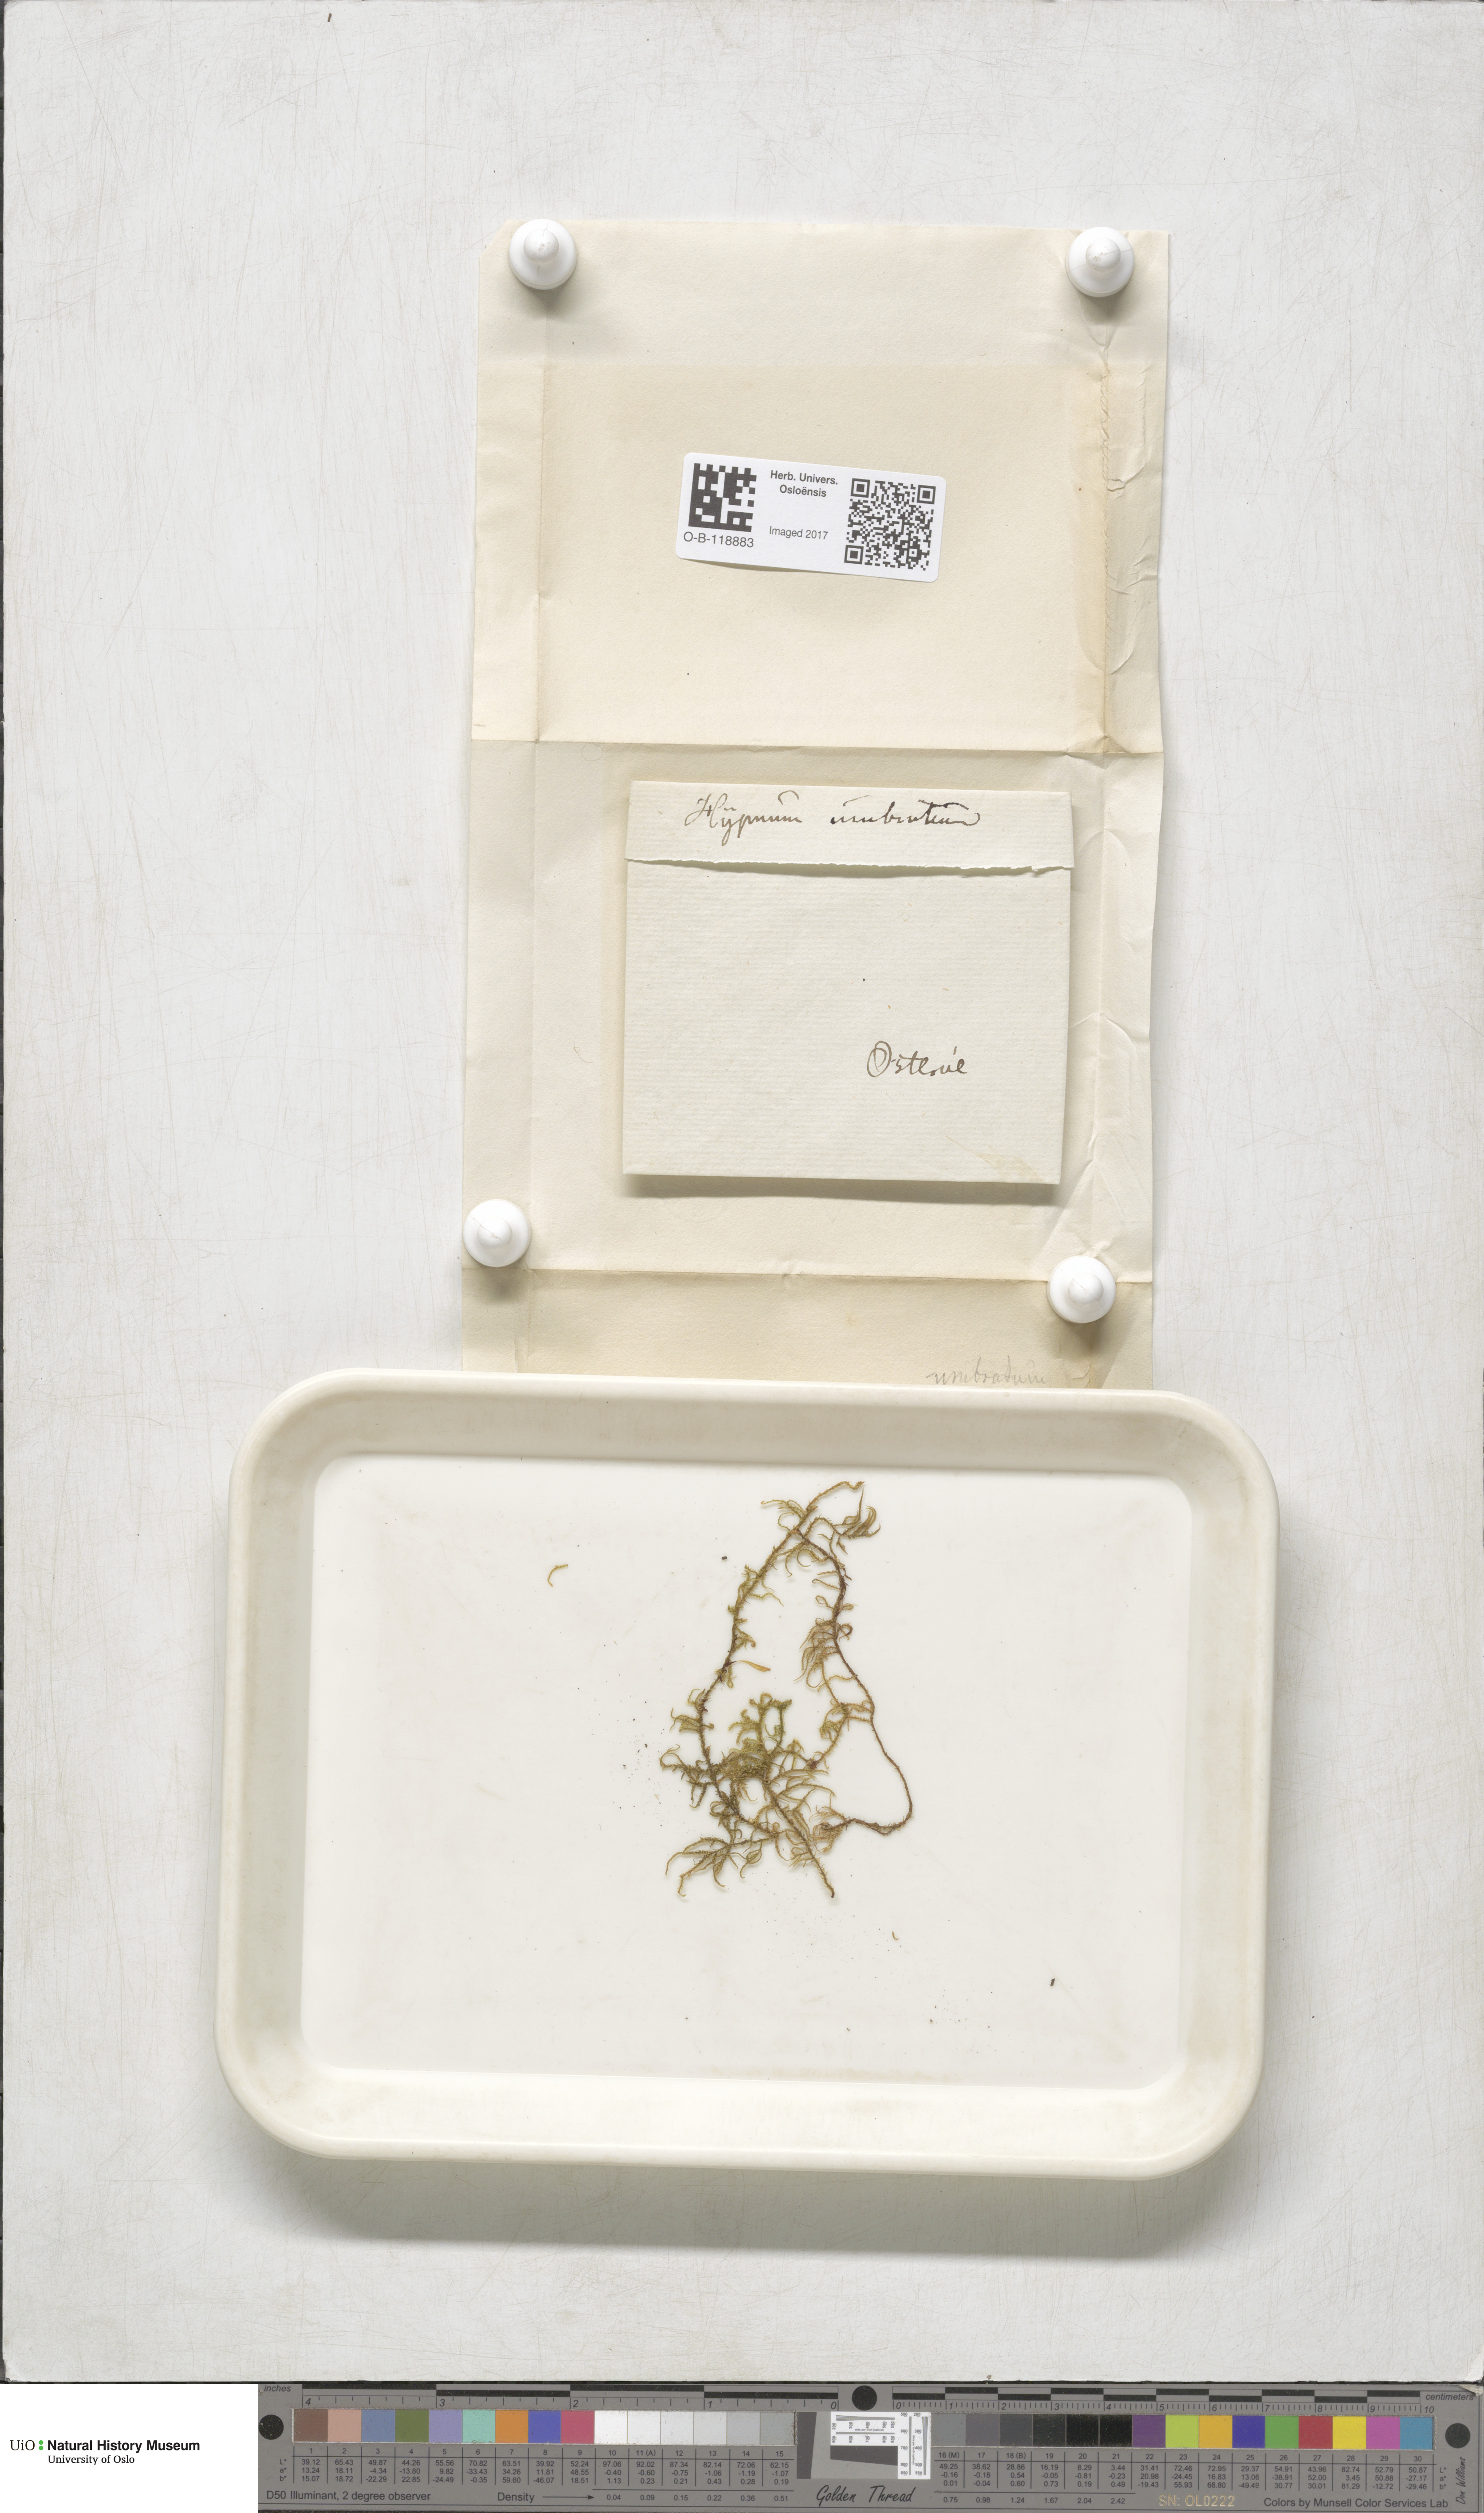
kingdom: Plantae
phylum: Bryophyta
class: Bryopsida
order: Hypnales
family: Hylocomiaceae
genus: Hylocomiastrum
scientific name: Hylocomiastrum umbratum
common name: Shaded woods moss
